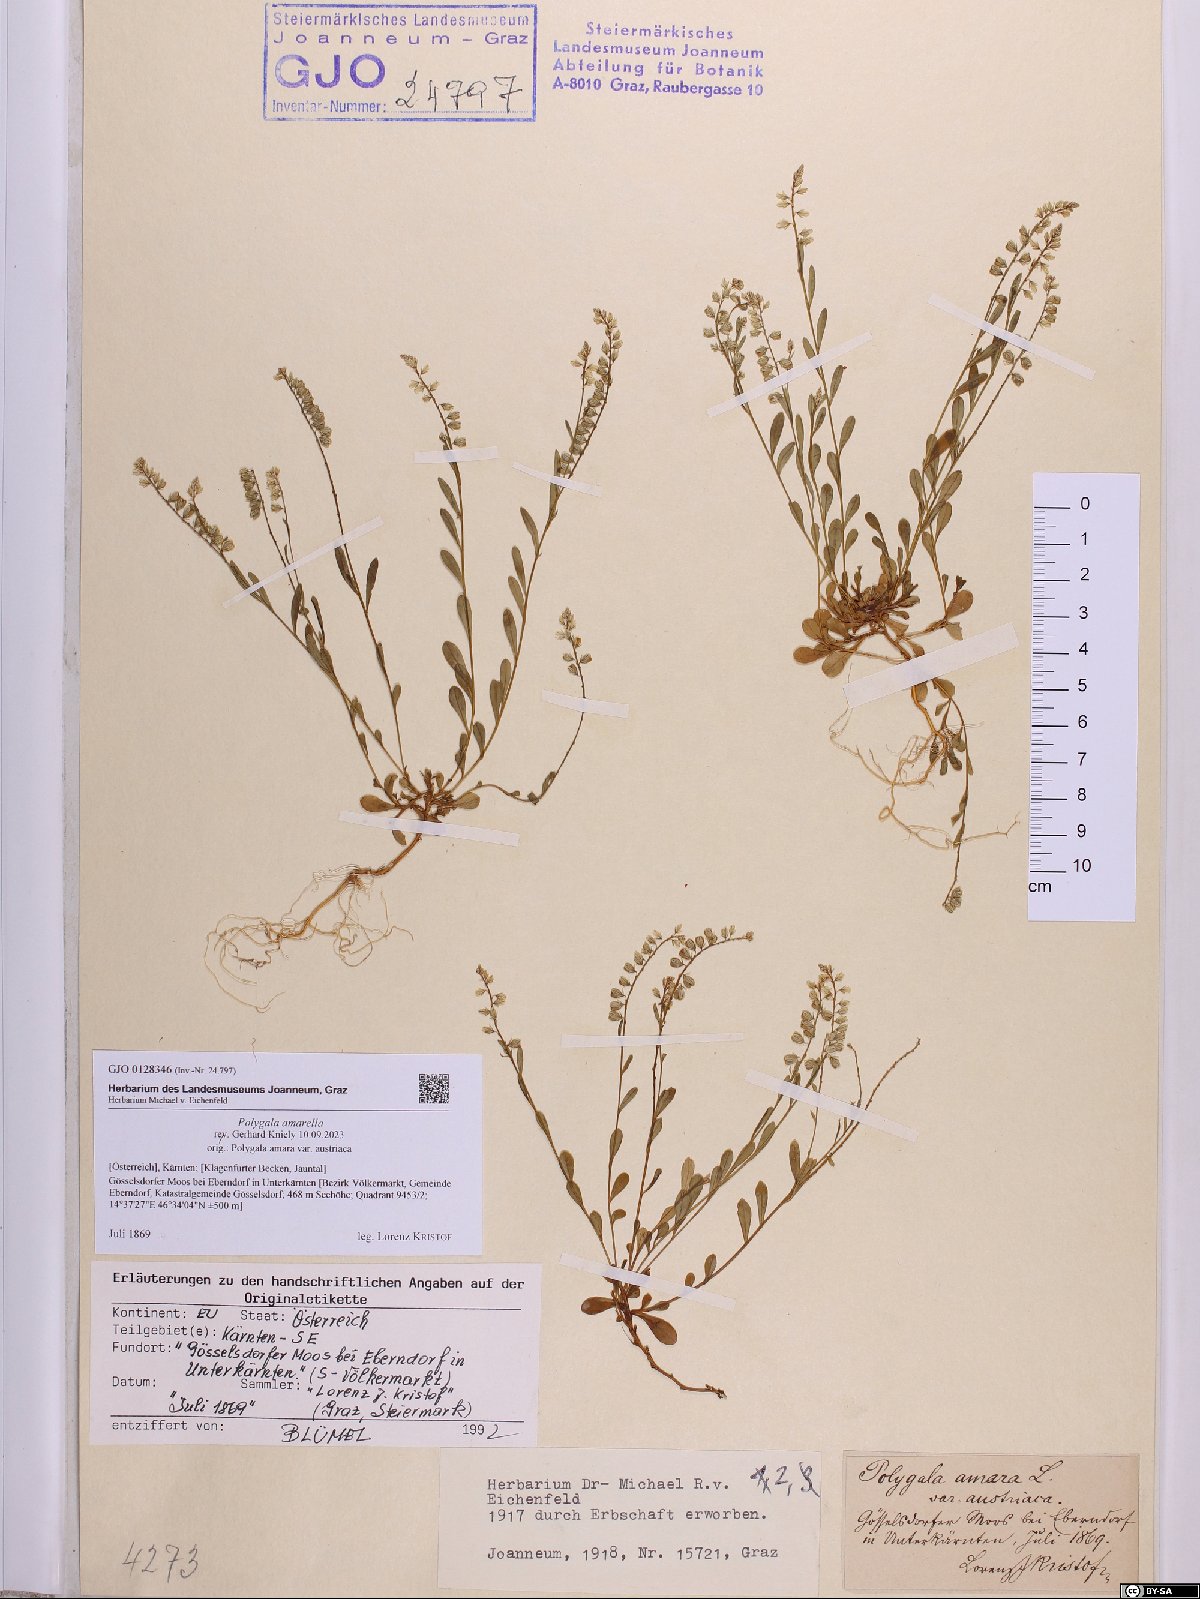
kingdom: Plantae
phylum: Tracheophyta
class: Magnoliopsida
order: Fabales
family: Polygalaceae
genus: Polygala
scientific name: Polygala amarella
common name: Dwarf milkwort
